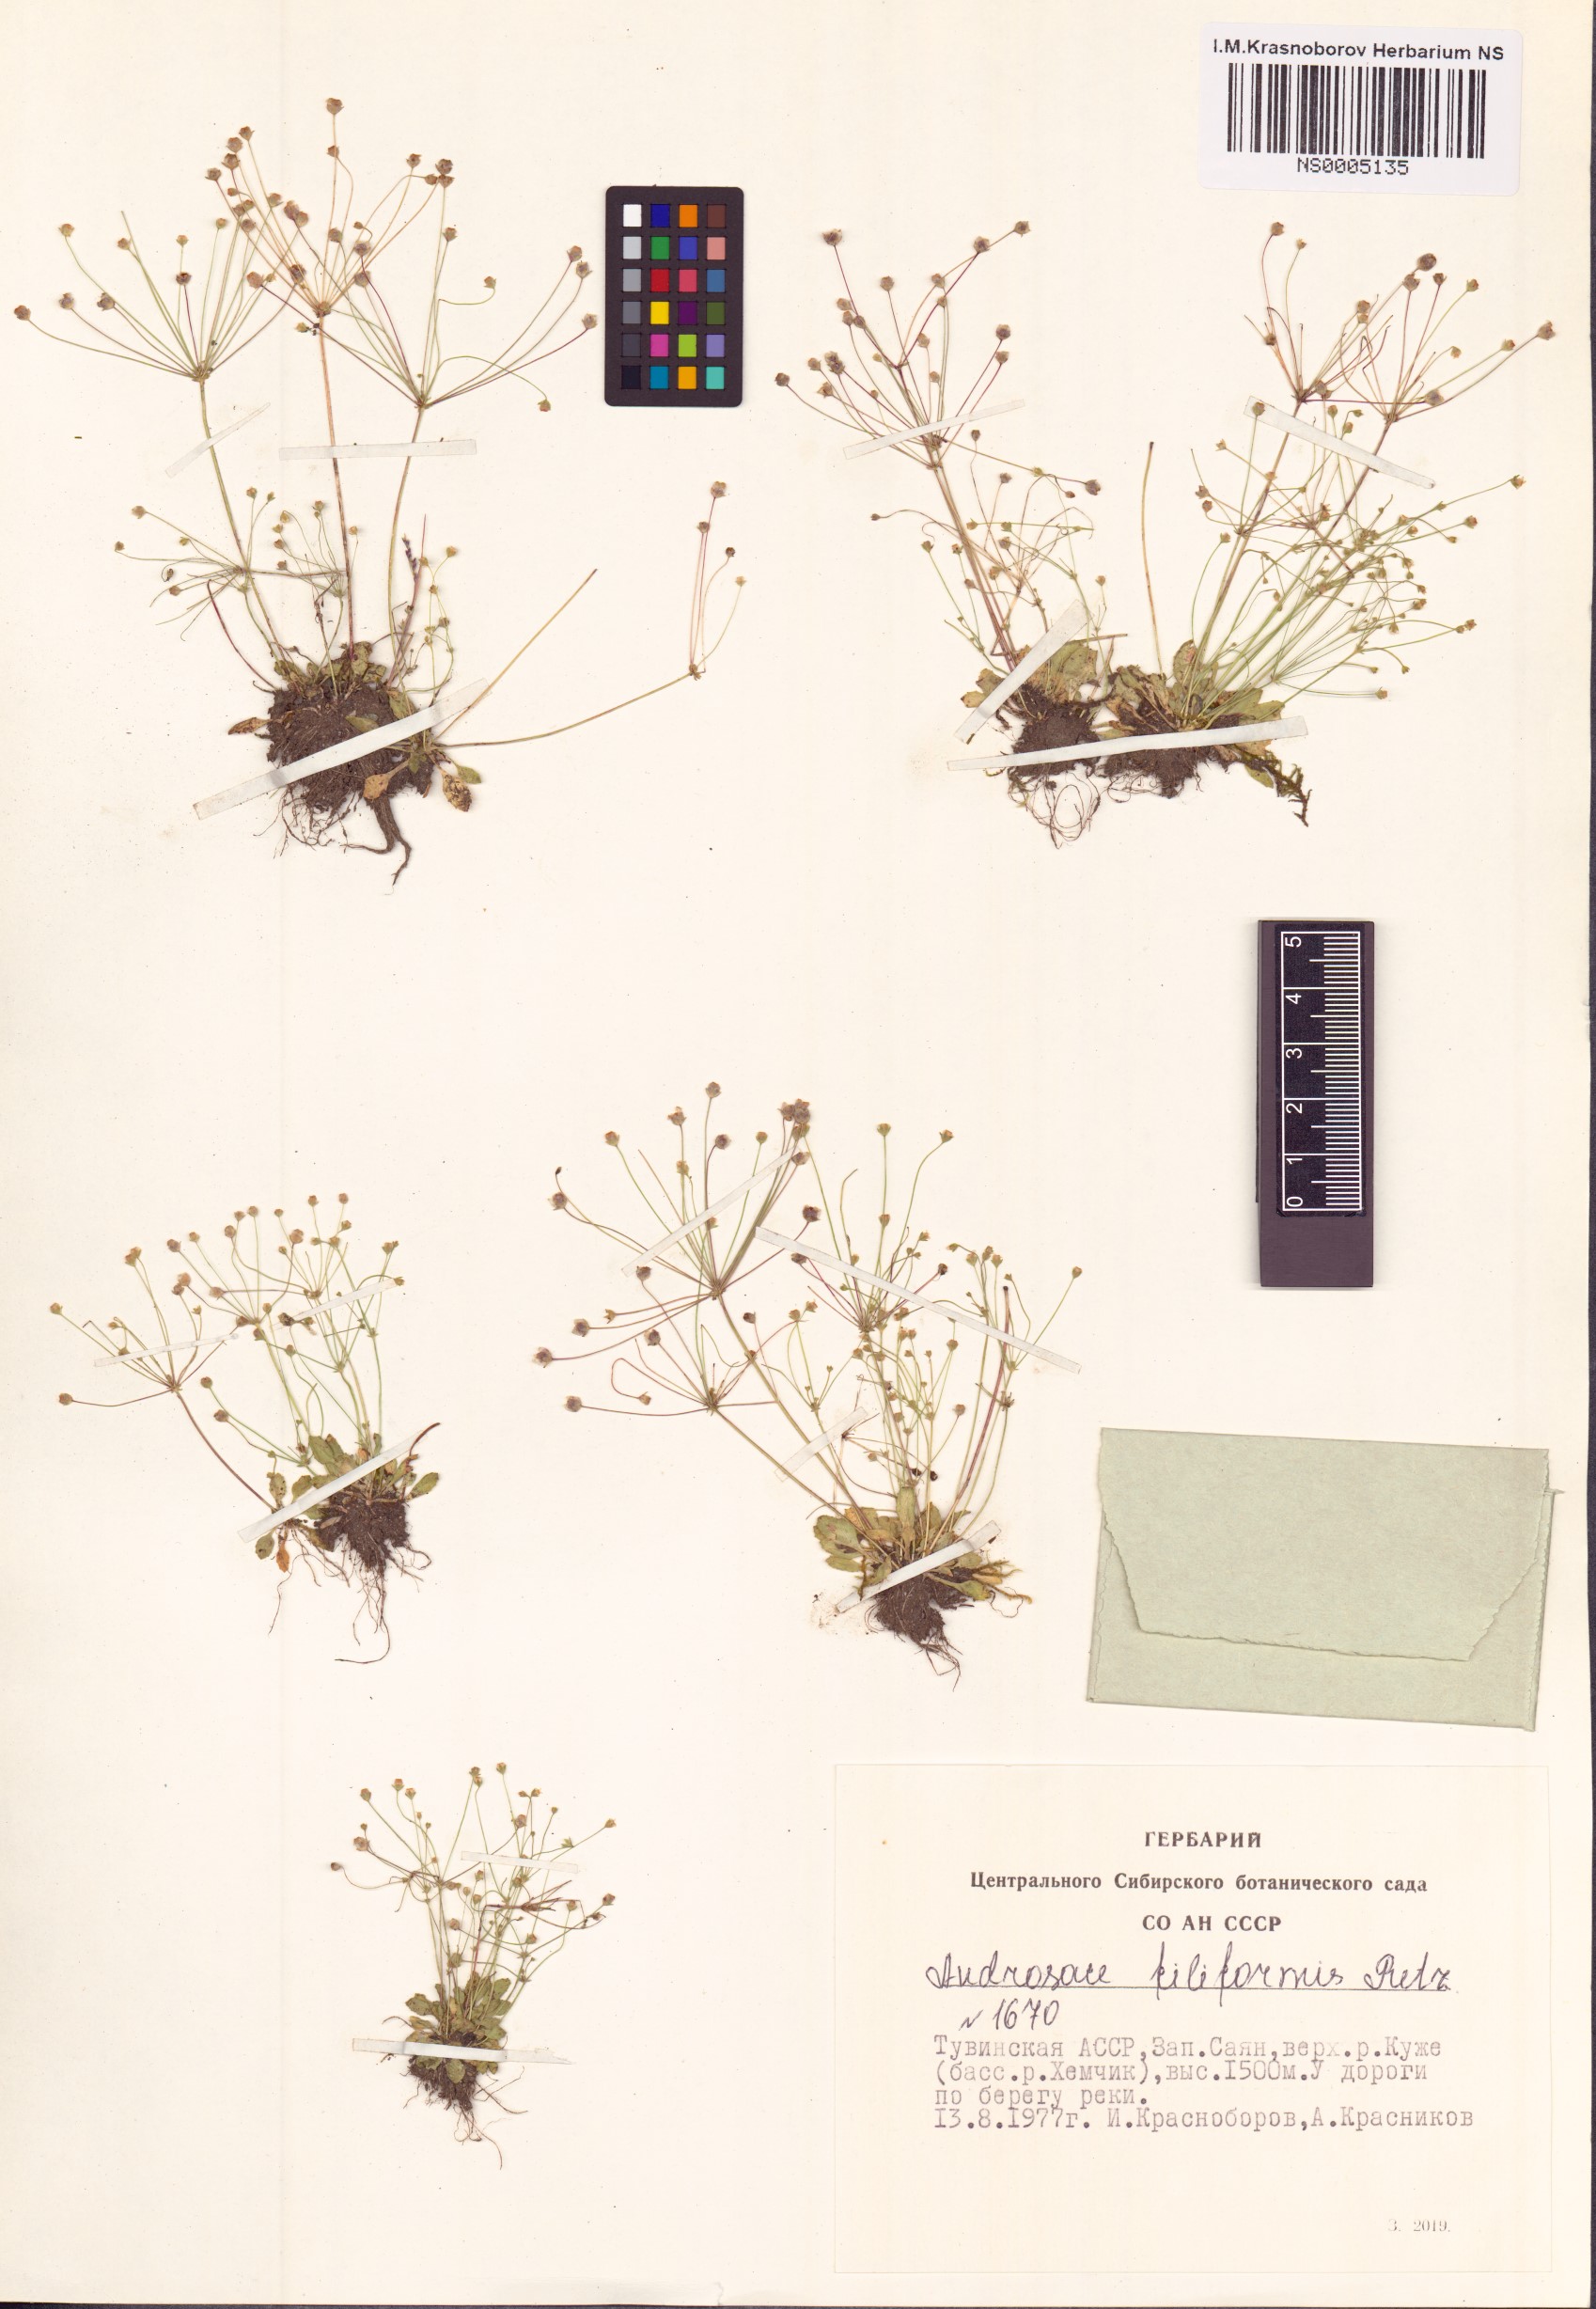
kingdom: Plantae
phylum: Tracheophyta
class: Magnoliopsida
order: Ericales
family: Primulaceae
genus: Androsace
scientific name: Androsace filiformis
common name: Filiform rock jasmine
